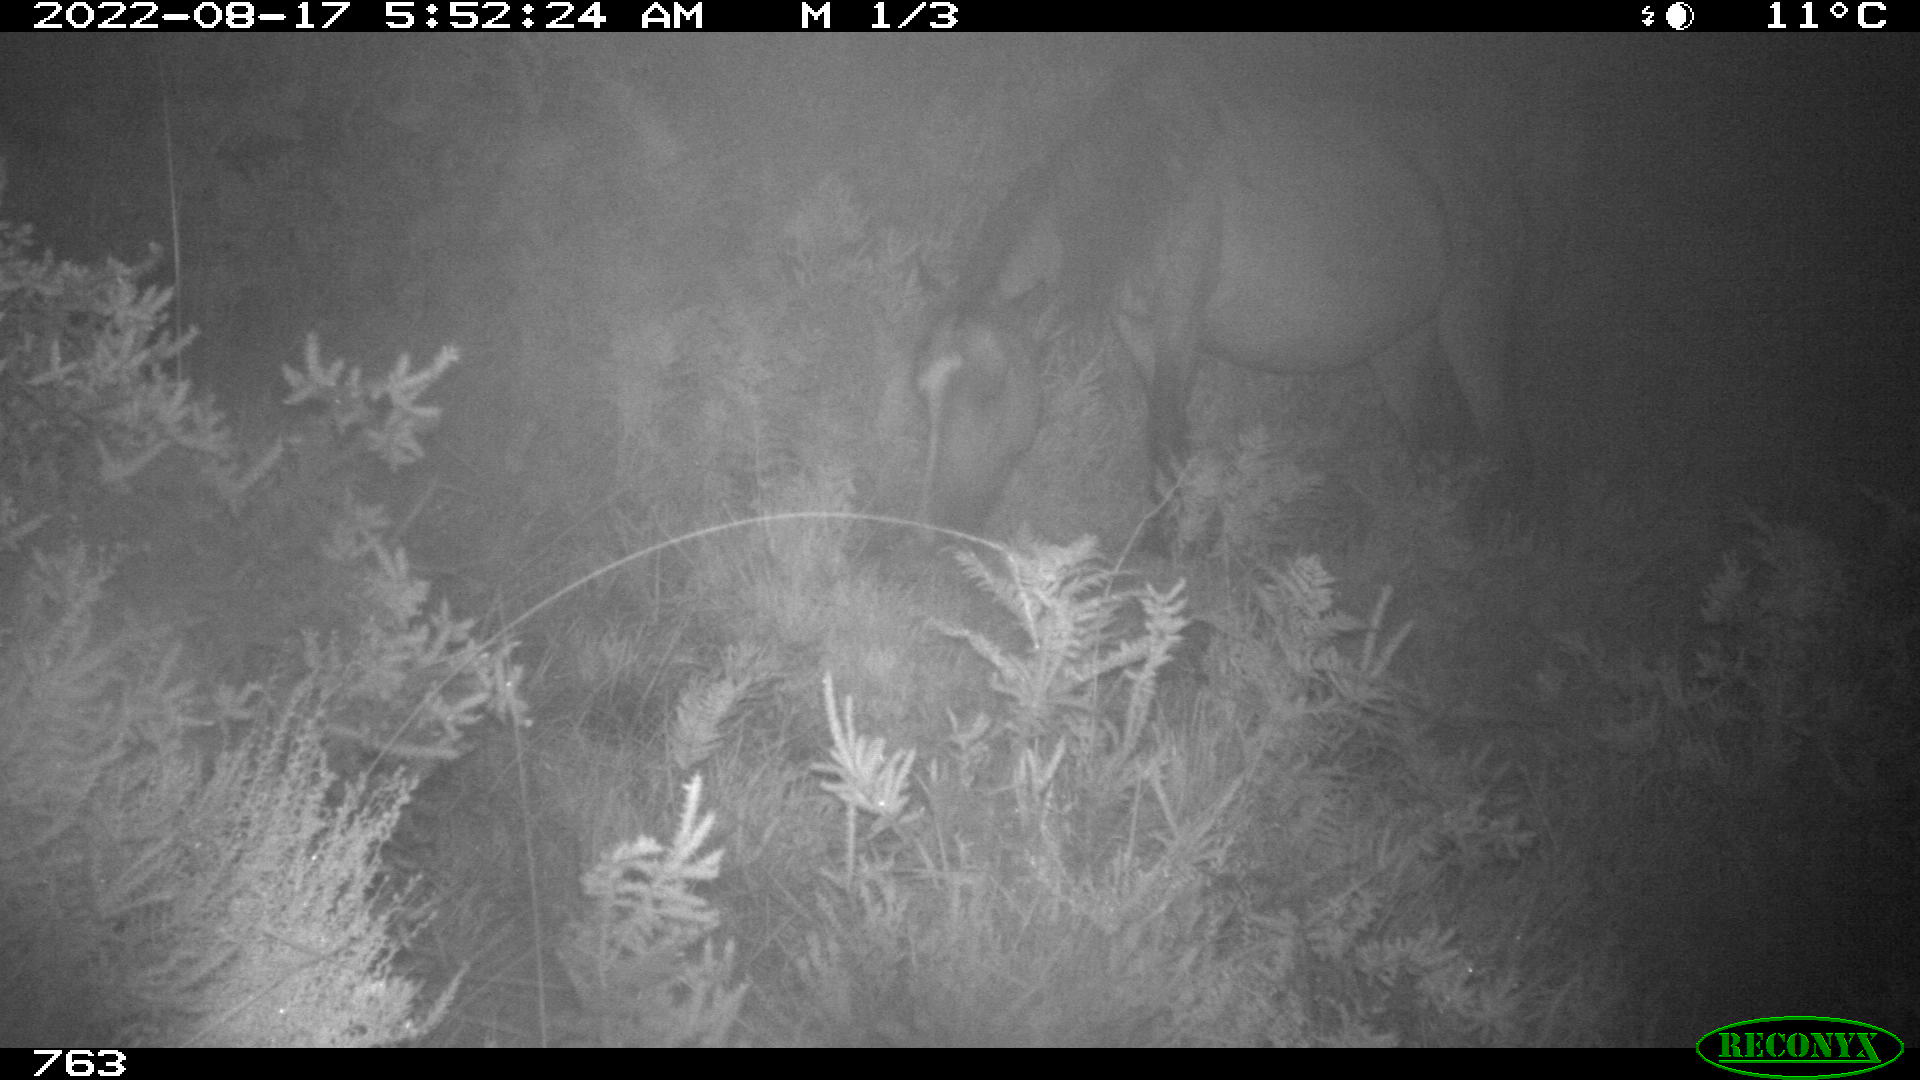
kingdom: Animalia
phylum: Chordata
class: Mammalia
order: Perissodactyla
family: Equidae
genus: Equus
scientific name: Equus caballus
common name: Horse
